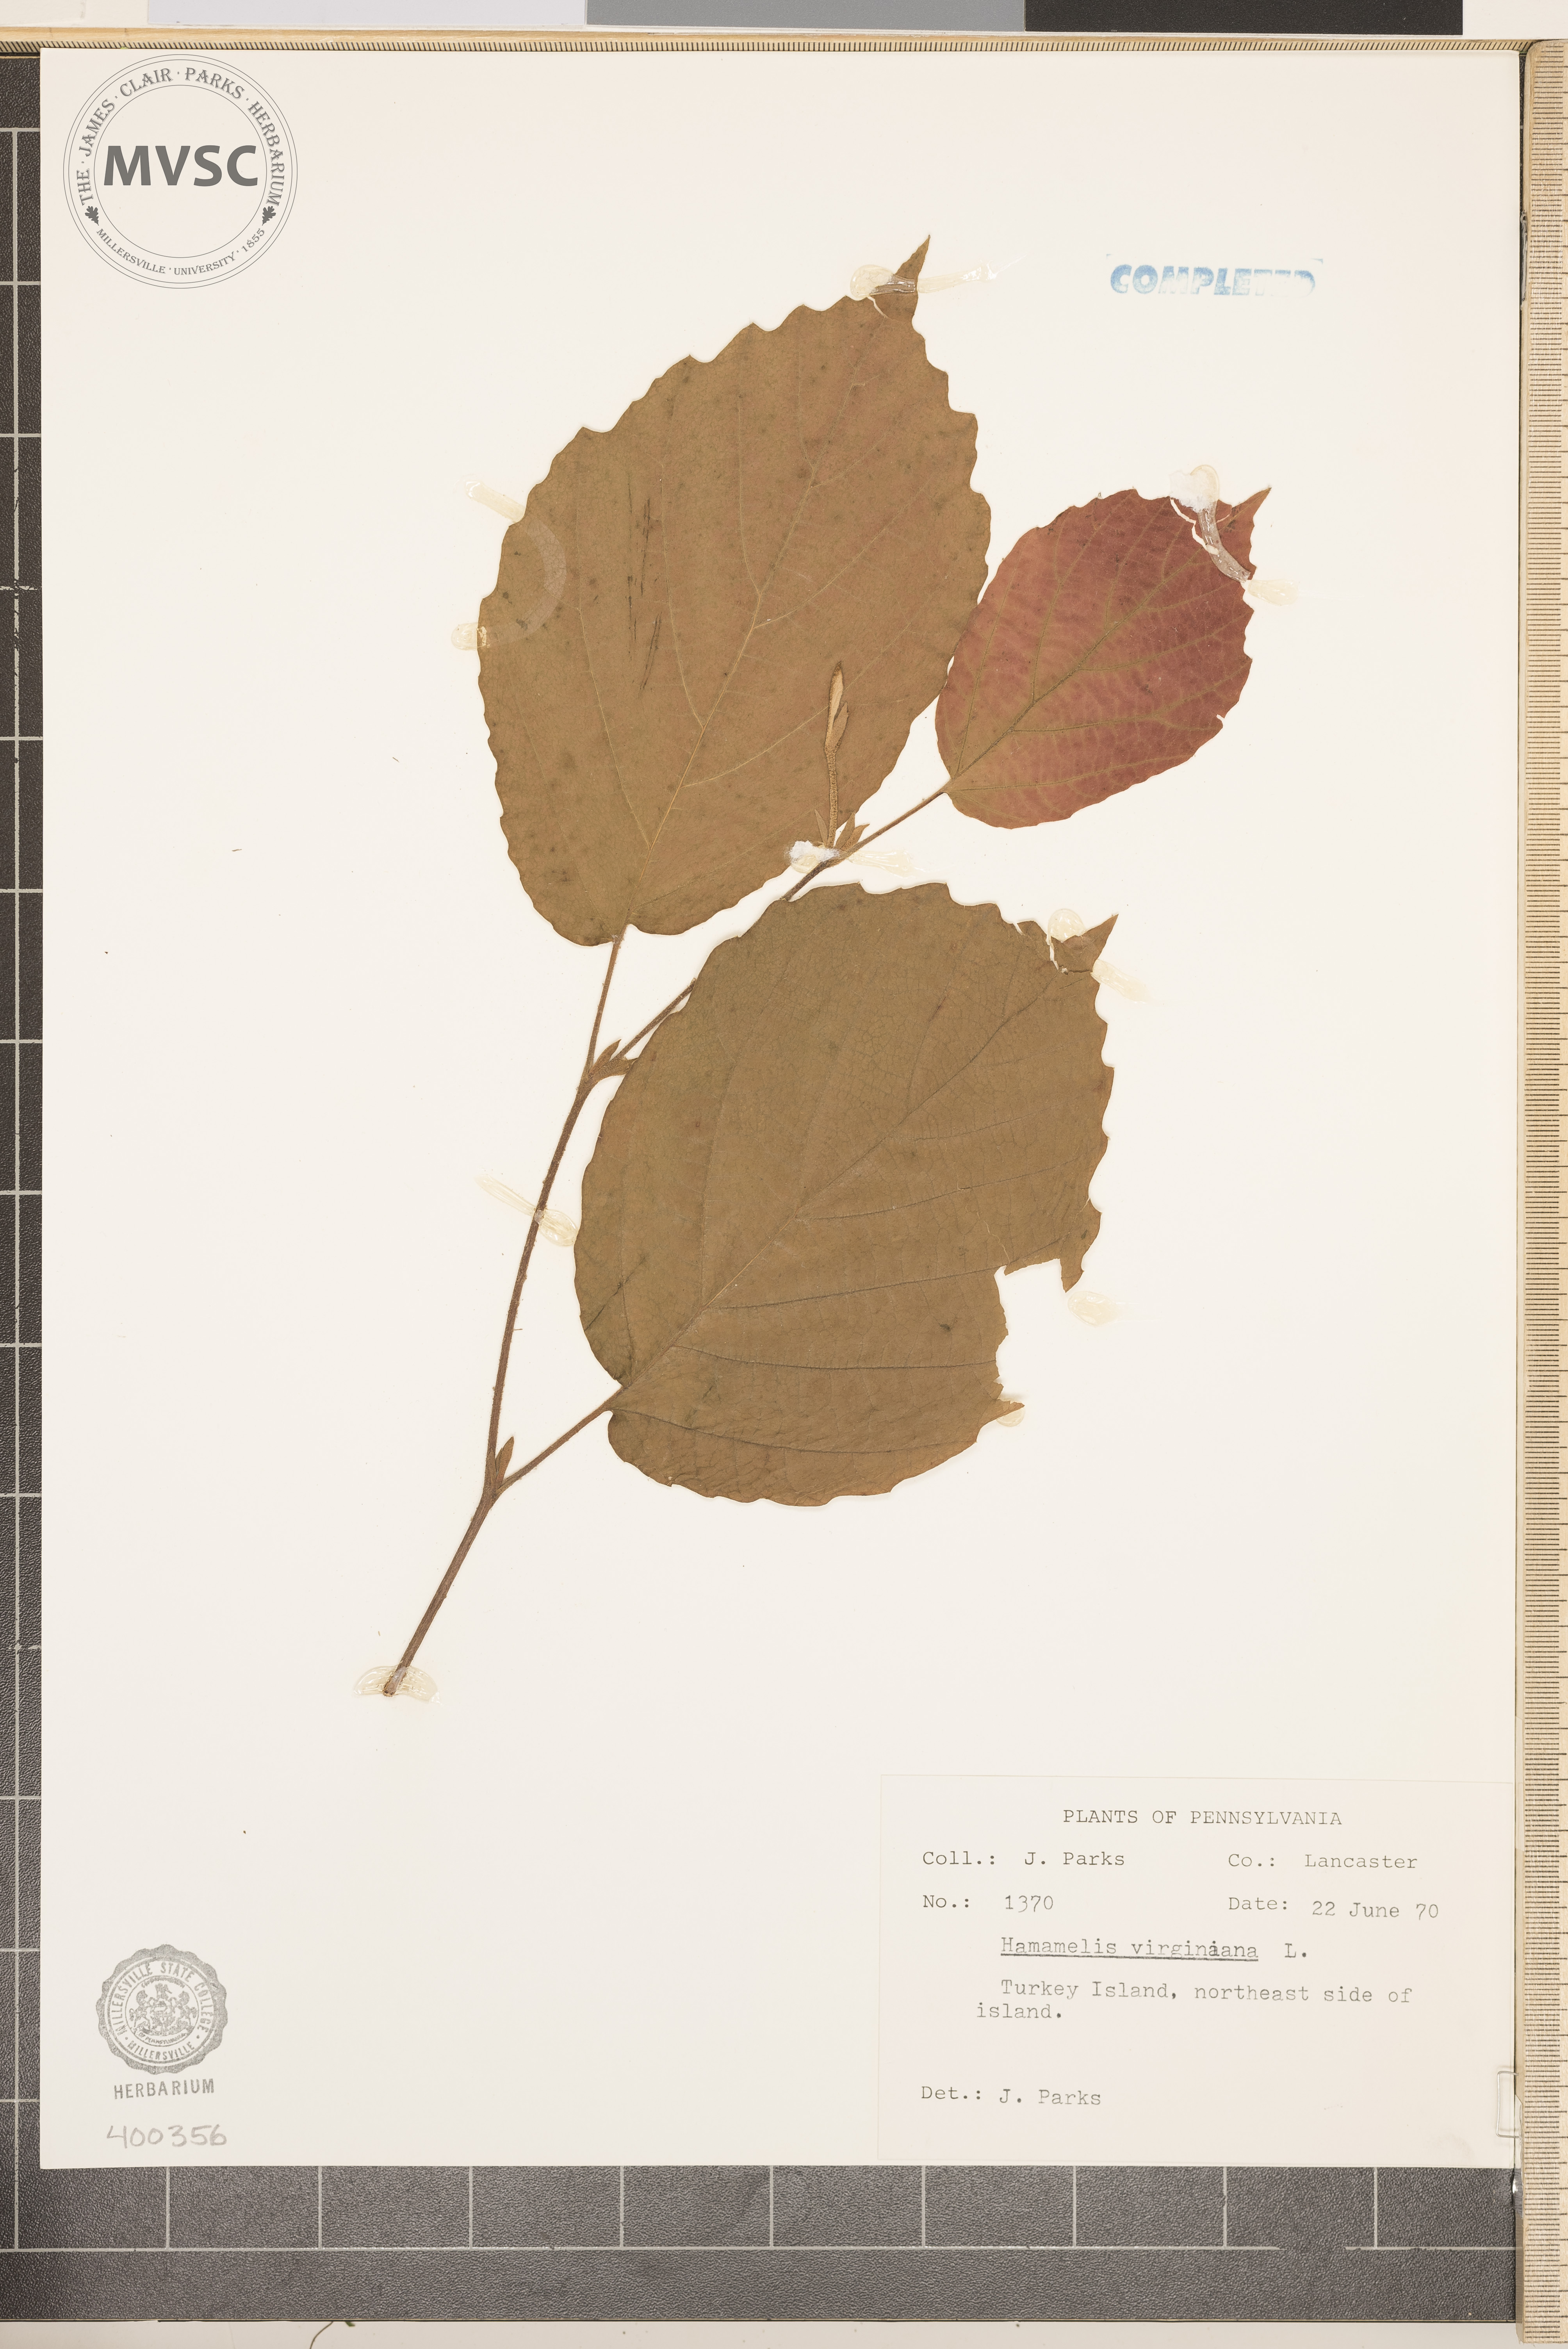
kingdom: Plantae
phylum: Tracheophyta
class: Magnoliopsida
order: Saxifragales
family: Hamamelidaceae
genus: Hamamelis
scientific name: Hamamelis virginiana
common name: witch-hazel
